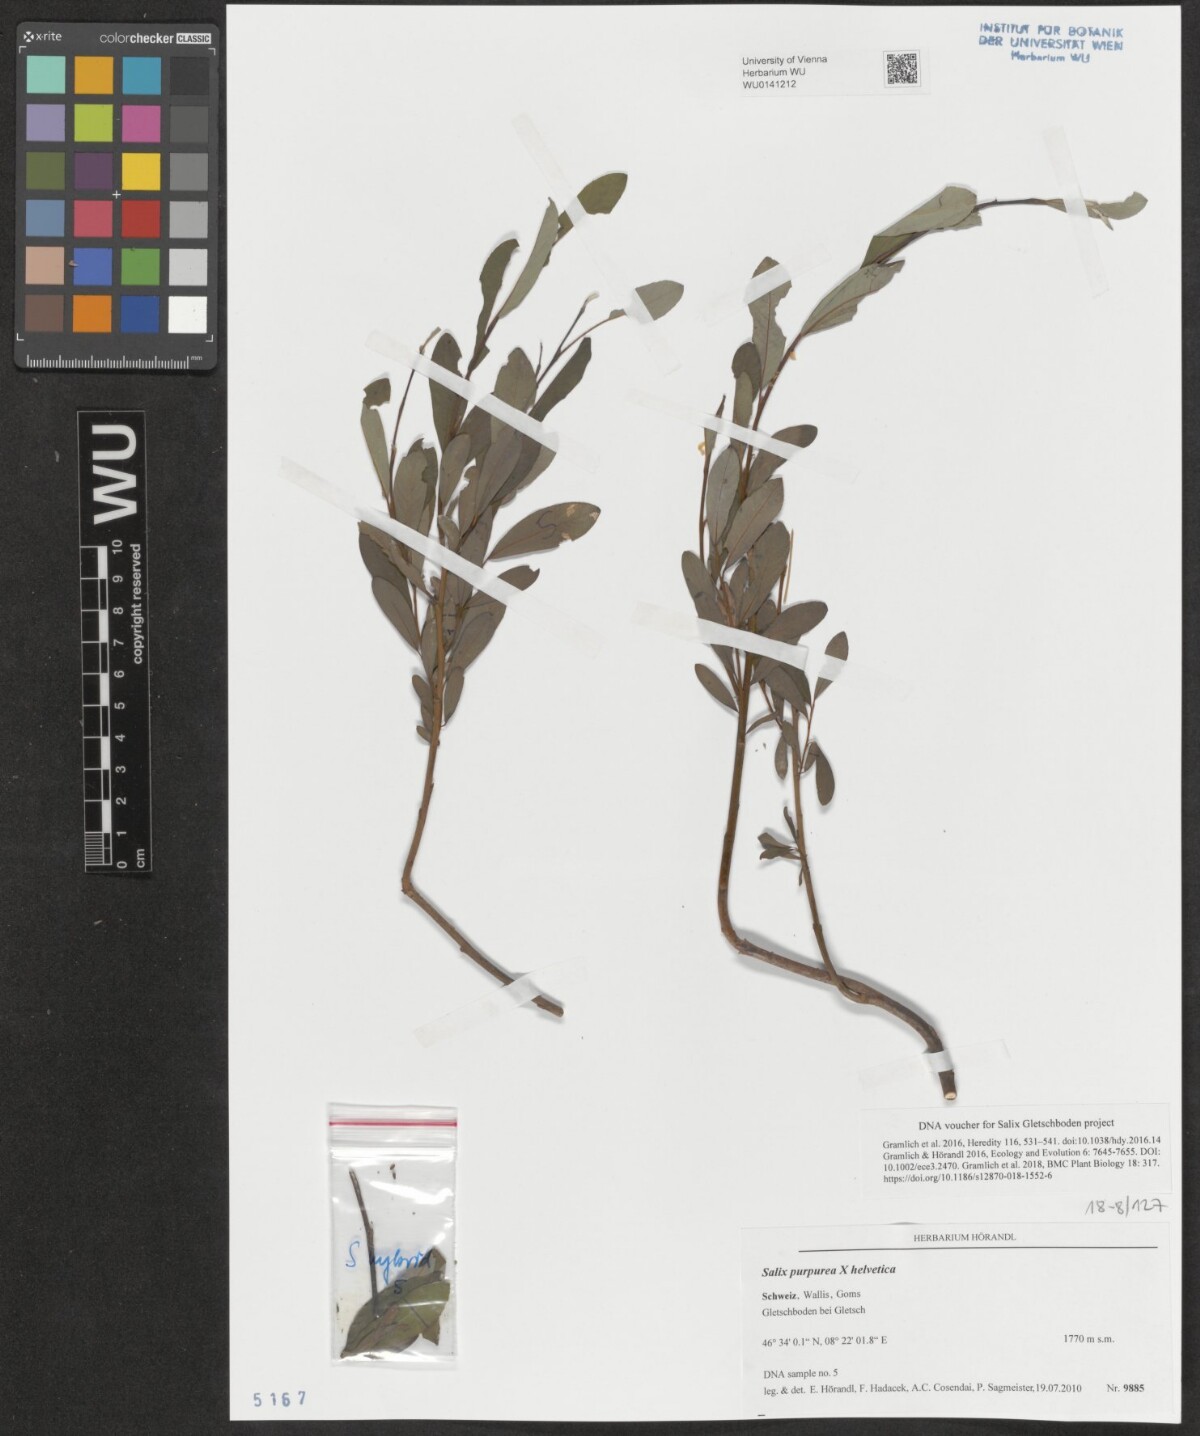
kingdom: Plantae
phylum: Tracheophyta
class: Magnoliopsida
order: Malpighiales
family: Salicaceae
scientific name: Salicaceae
